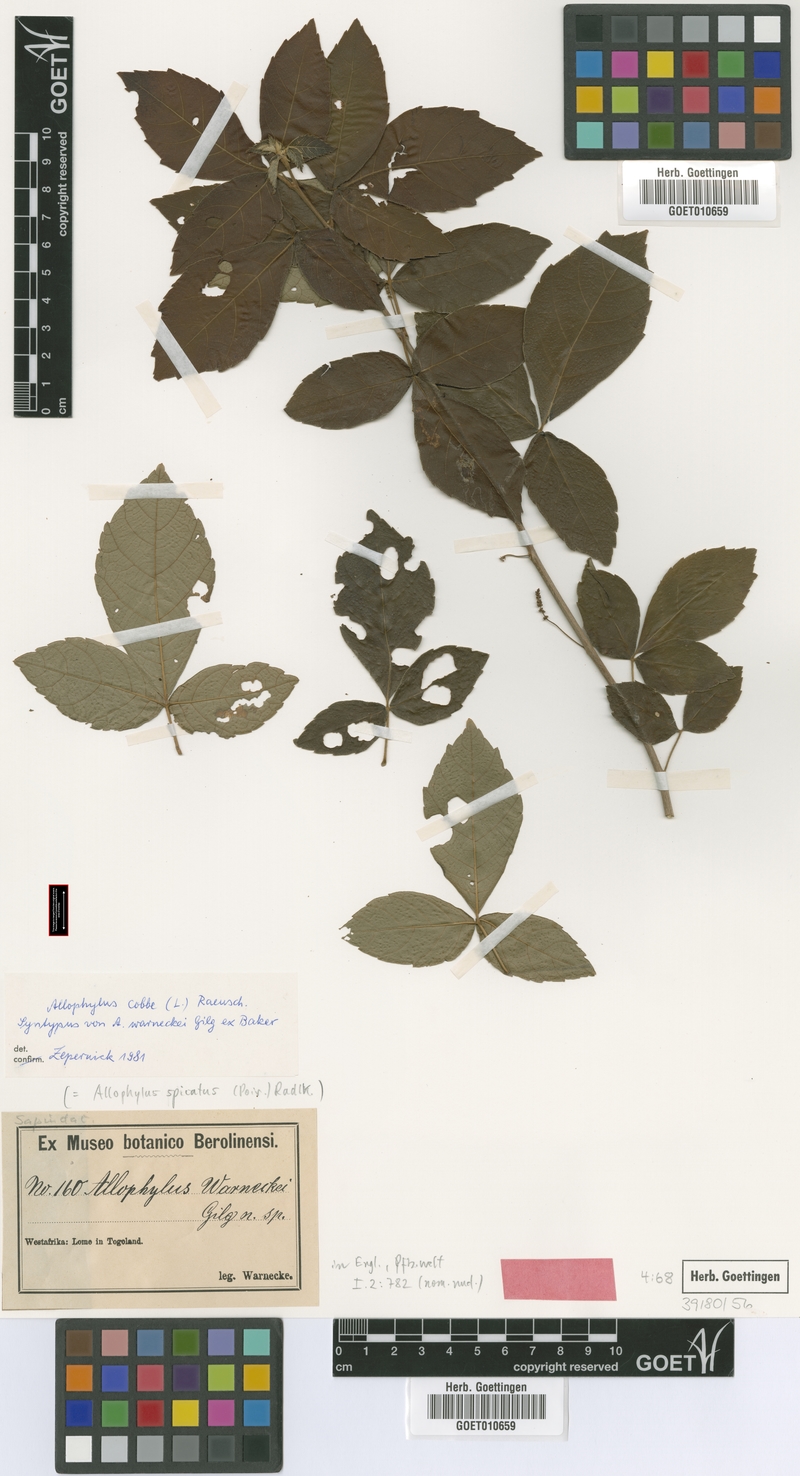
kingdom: Plantae
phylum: Tracheophyta
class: Magnoliopsida
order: Sapindales
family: Sapindaceae
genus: Allophylus
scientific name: Allophylus cobbe
